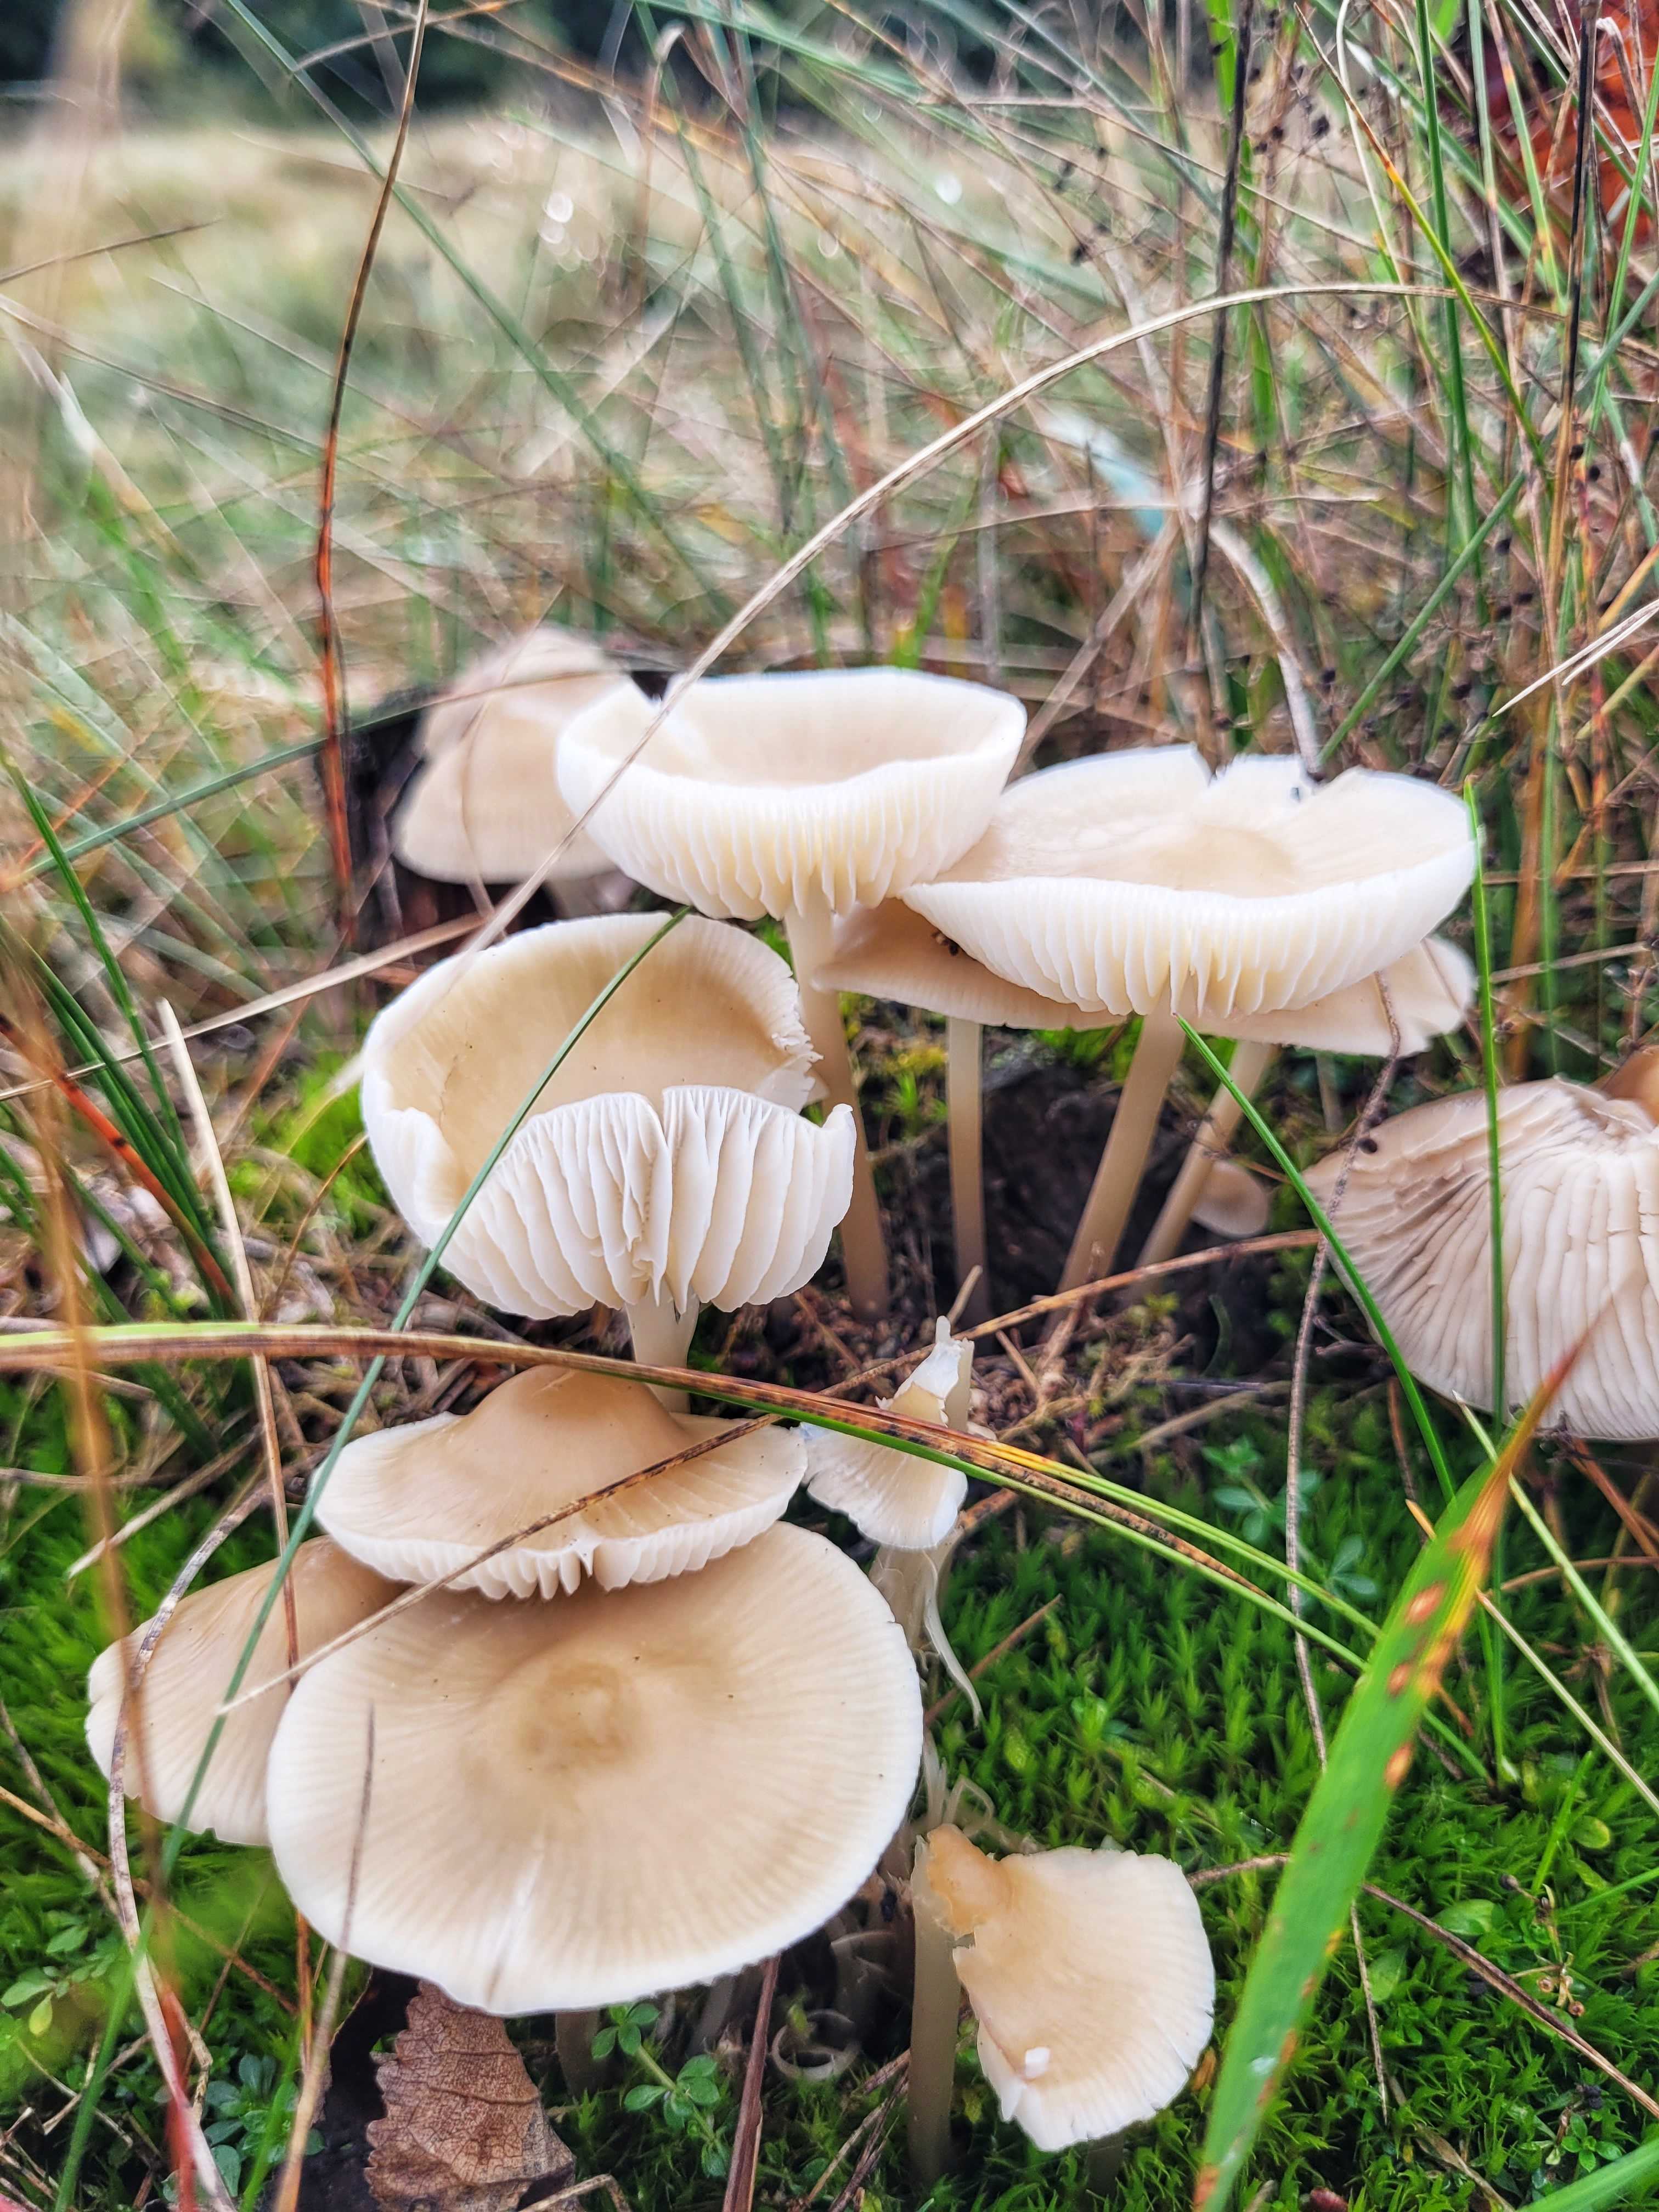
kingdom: Fungi
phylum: Basidiomycota
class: Agaricomycetes
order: Agaricales
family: Mycenaceae
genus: Mycena
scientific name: Mycena galericulata
